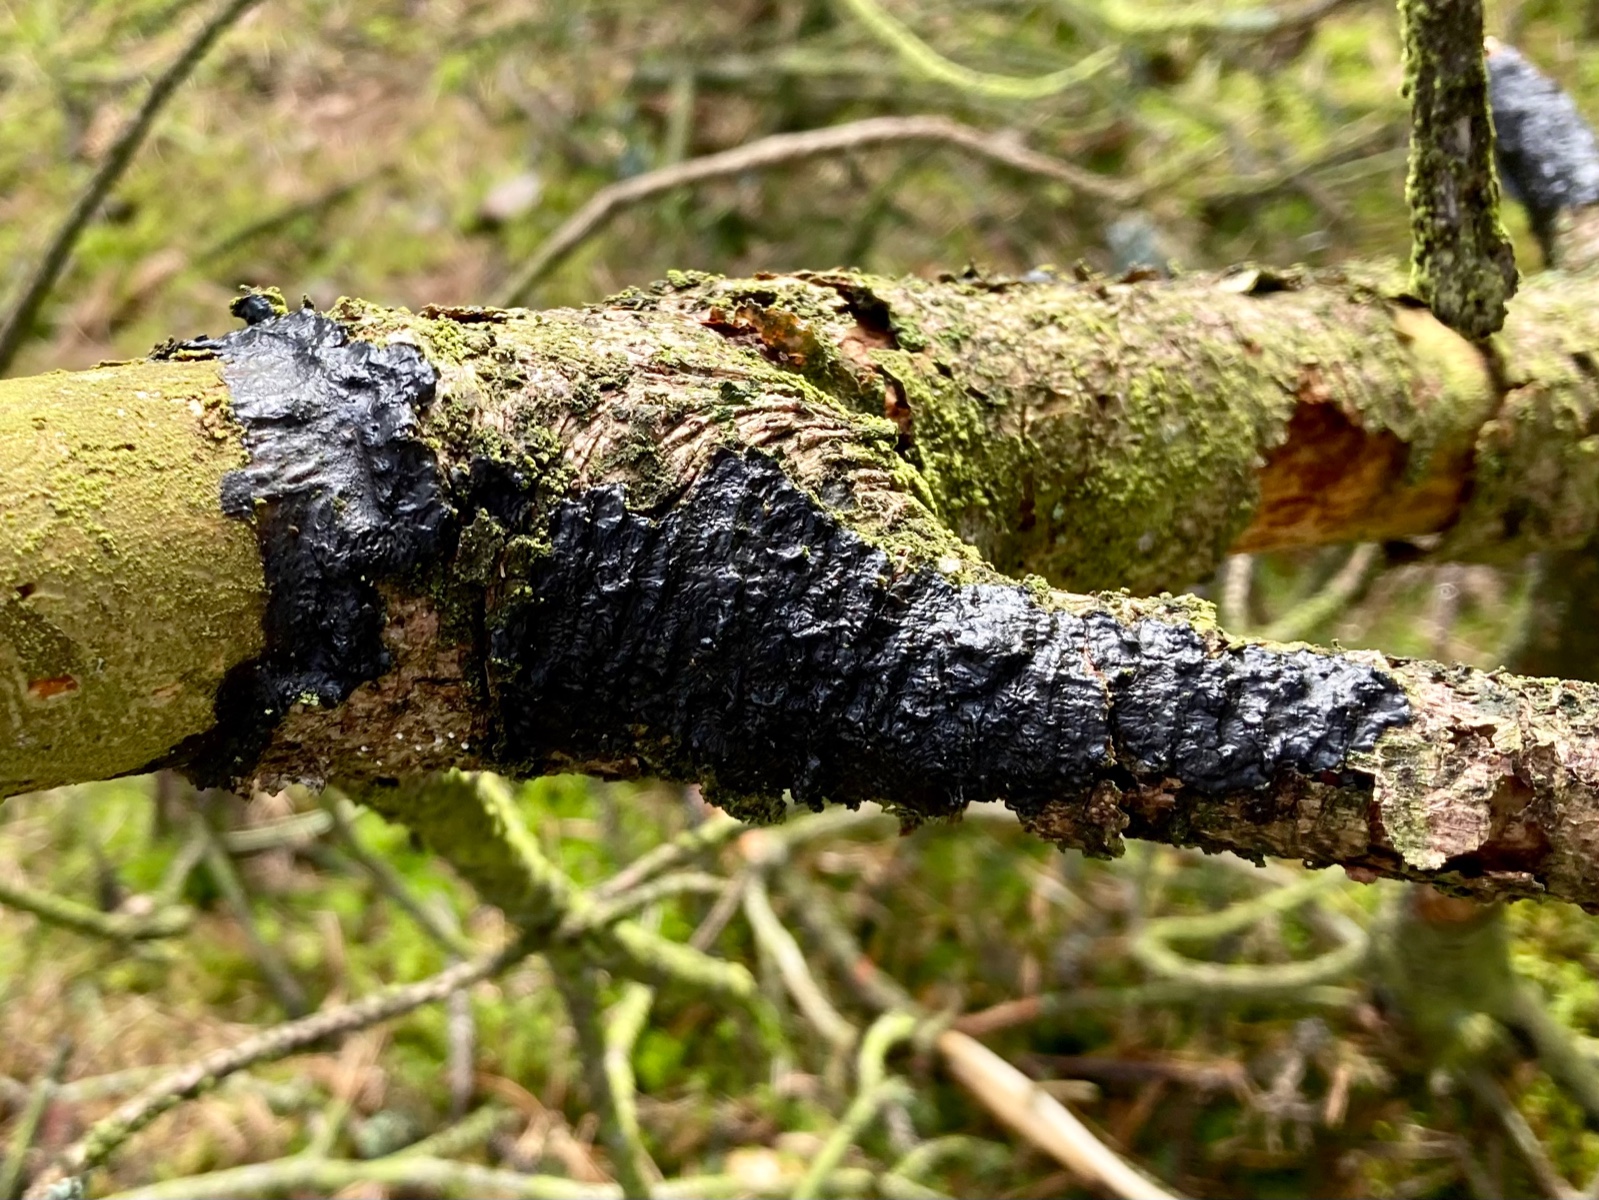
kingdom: Fungi
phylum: Basidiomycota
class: Agaricomycetes
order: Auriculariales
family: Auriculariaceae
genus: Exidia
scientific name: Exidia pithya
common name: gran-bævretop
